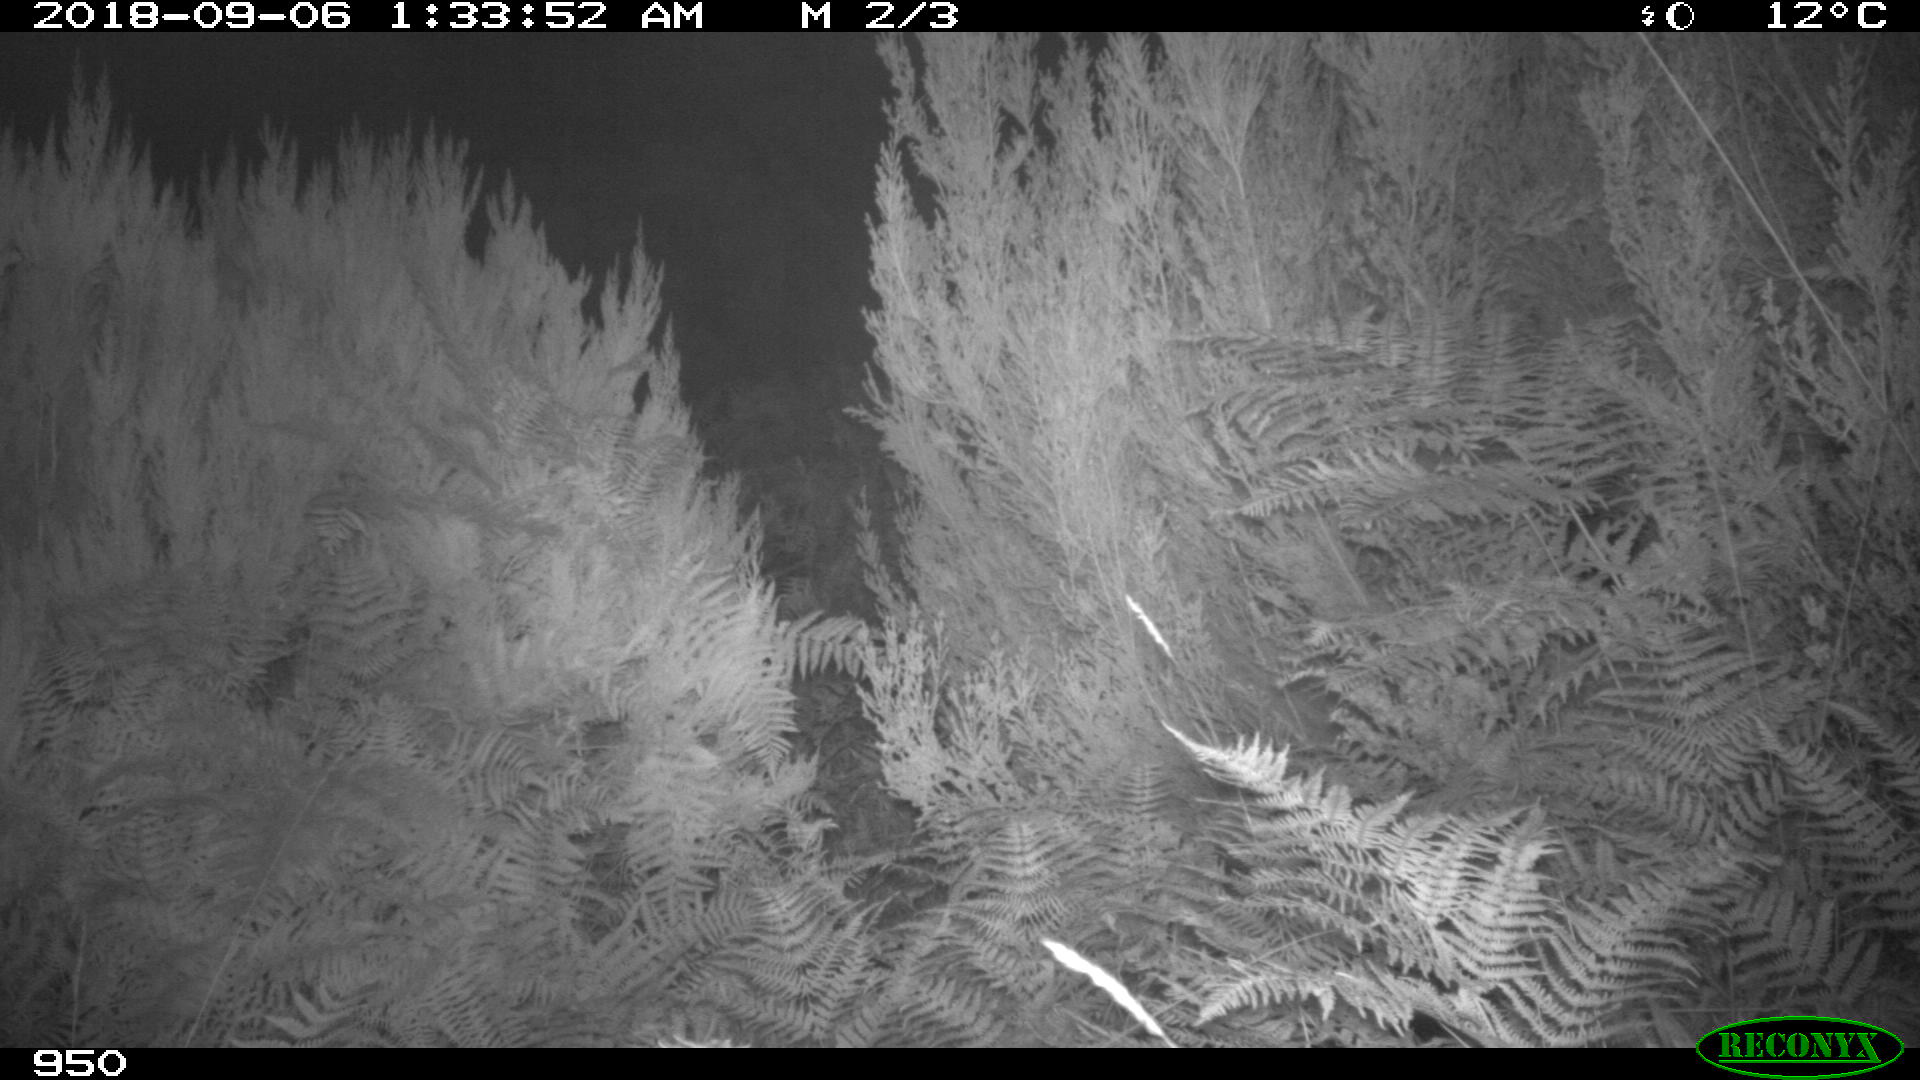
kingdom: Animalia
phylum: Chordata
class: Mammalia
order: Perissodactyla
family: Equidae
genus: Equus
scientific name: Equus caballus
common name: Horse
